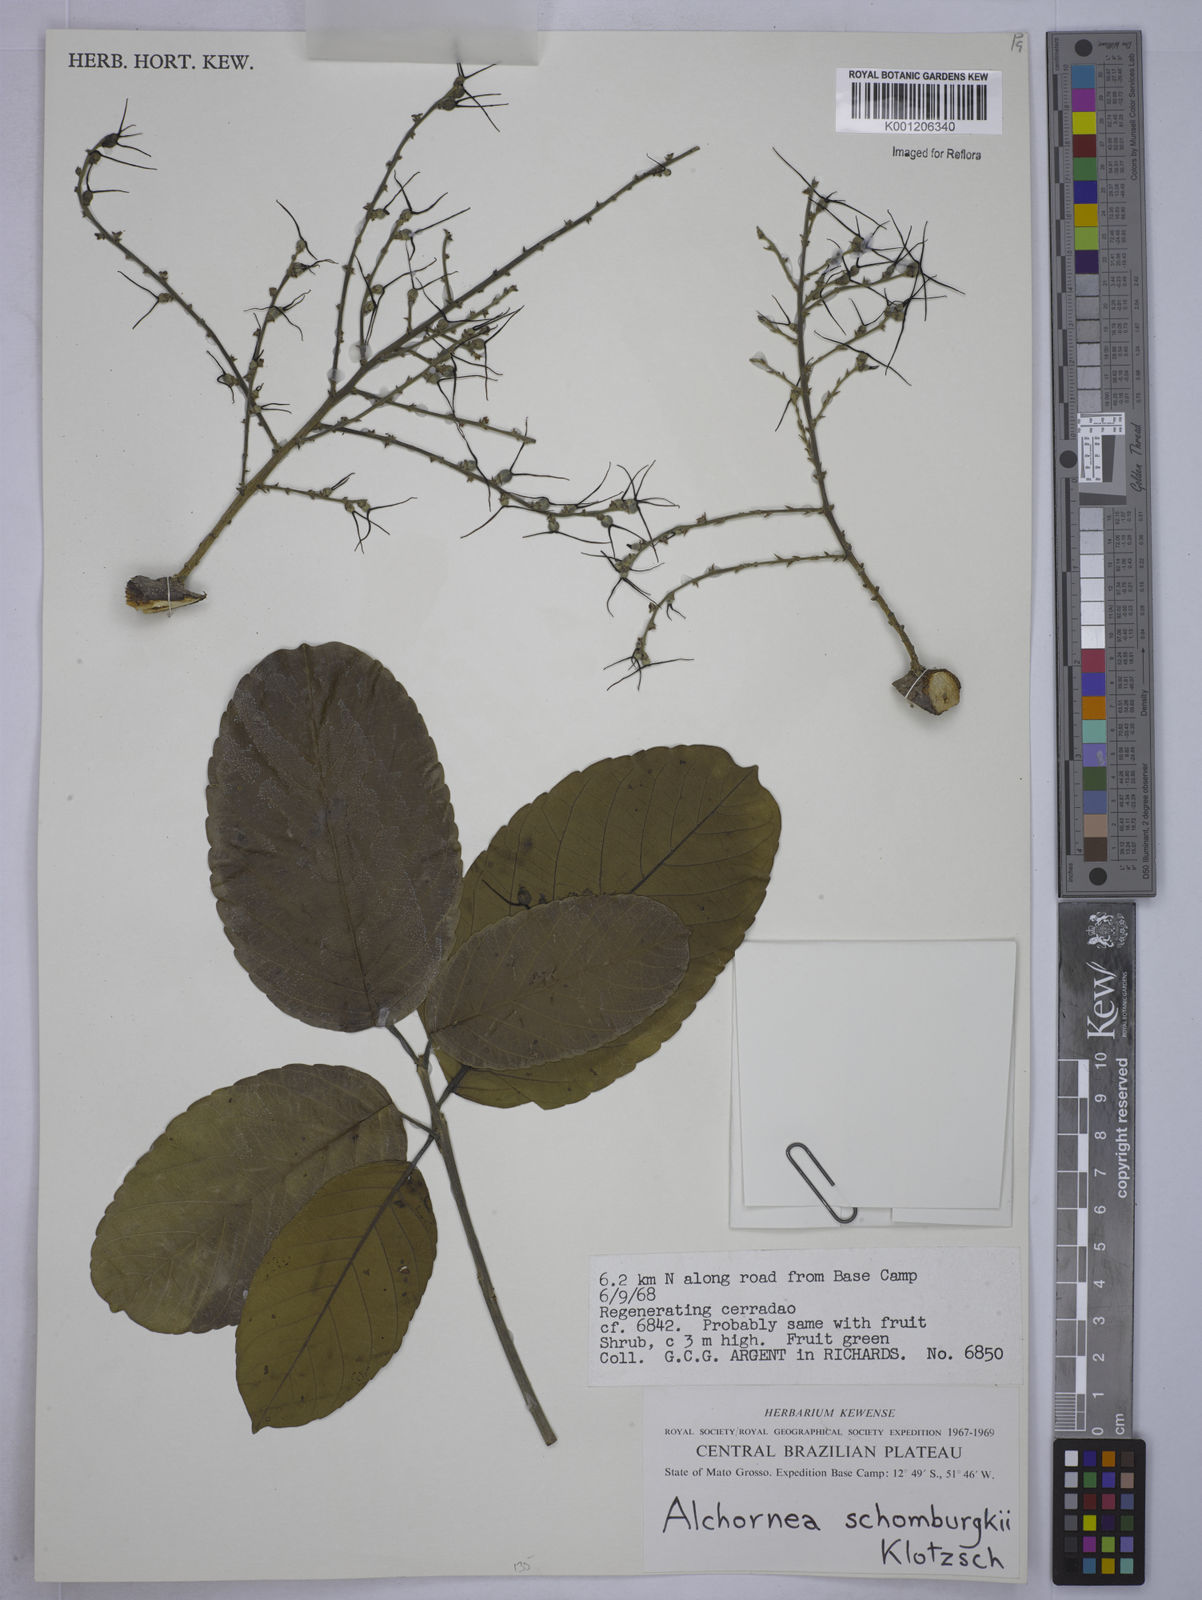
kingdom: Plantae
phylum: Tracheophyta
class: Magnoliopsida
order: Malpighiales
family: Euphorbiaceae
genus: Alchornea
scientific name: Alchornea discolor
